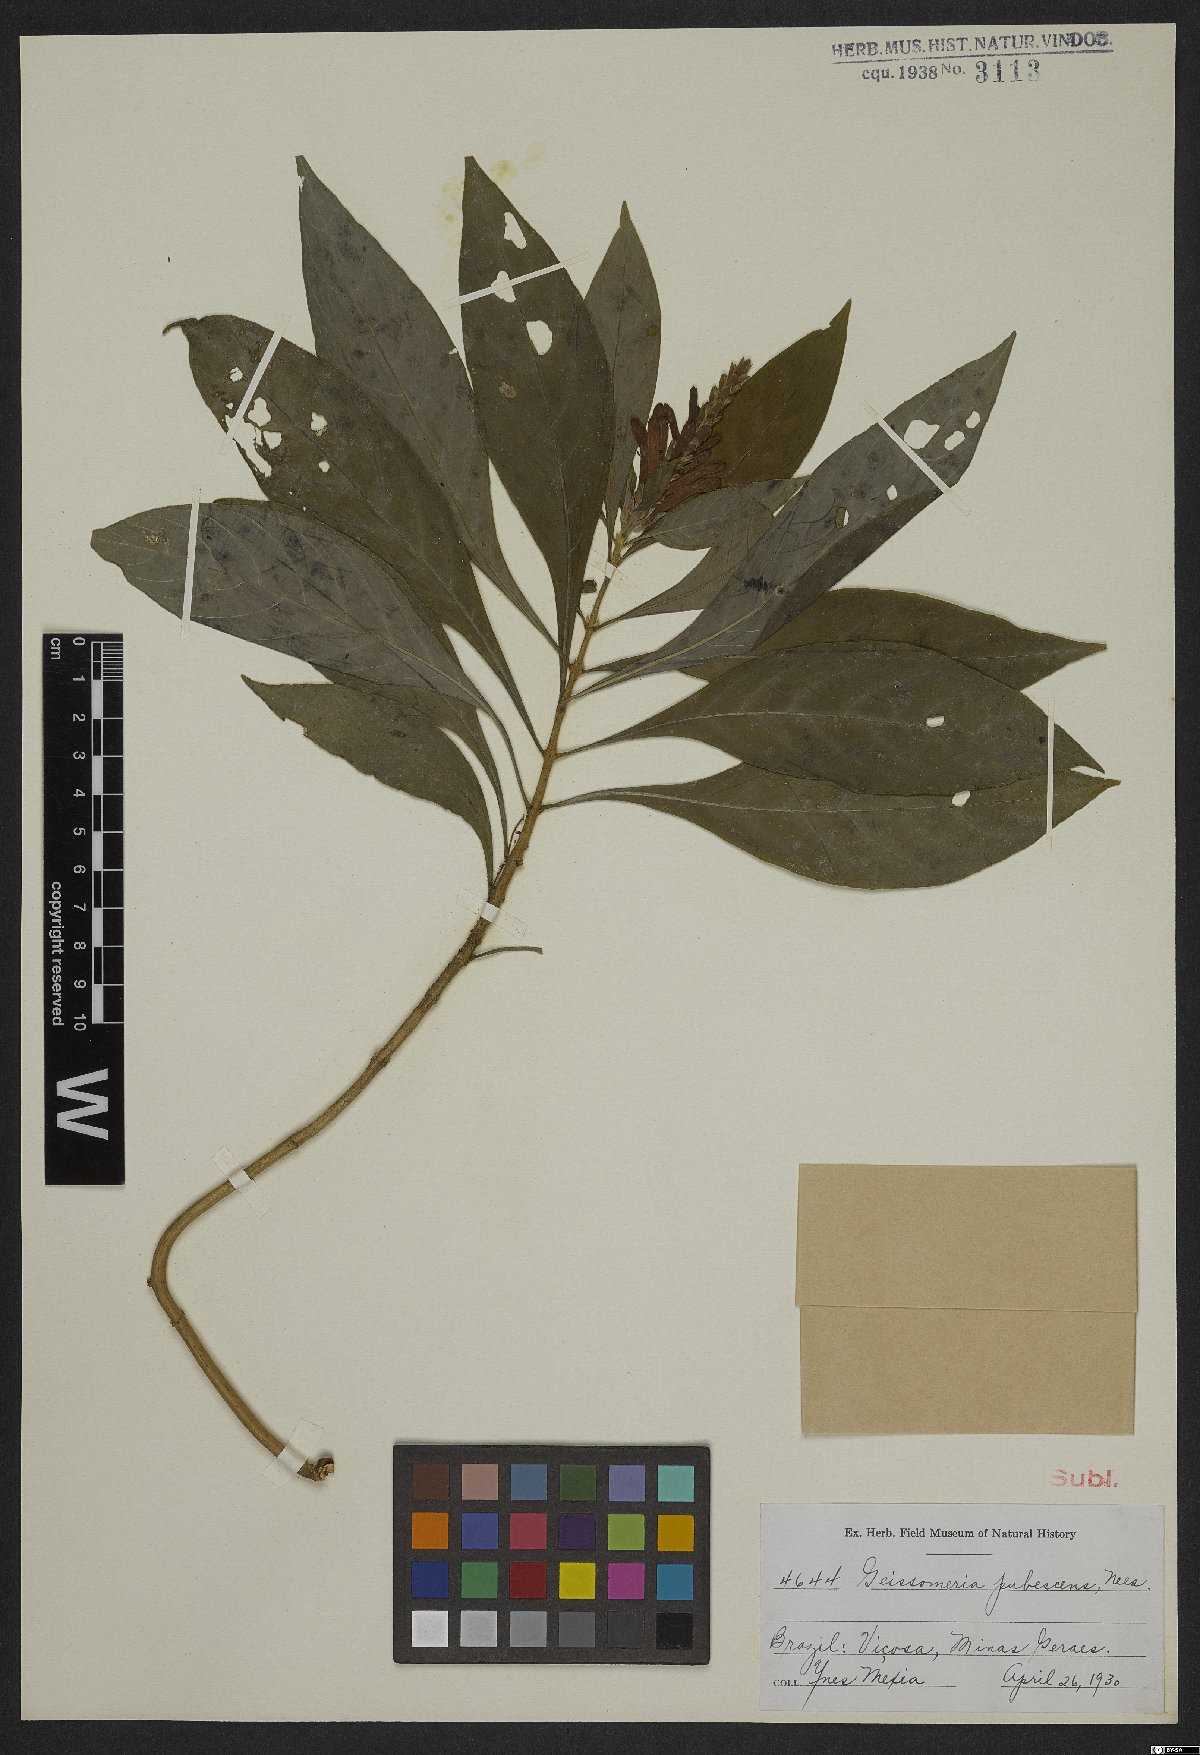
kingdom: Plantae
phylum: Tracheophyta
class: Magnoliopsida
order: Lamiales
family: Acanthaceae
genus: Aphelandra
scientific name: Aphelandra longiflora
